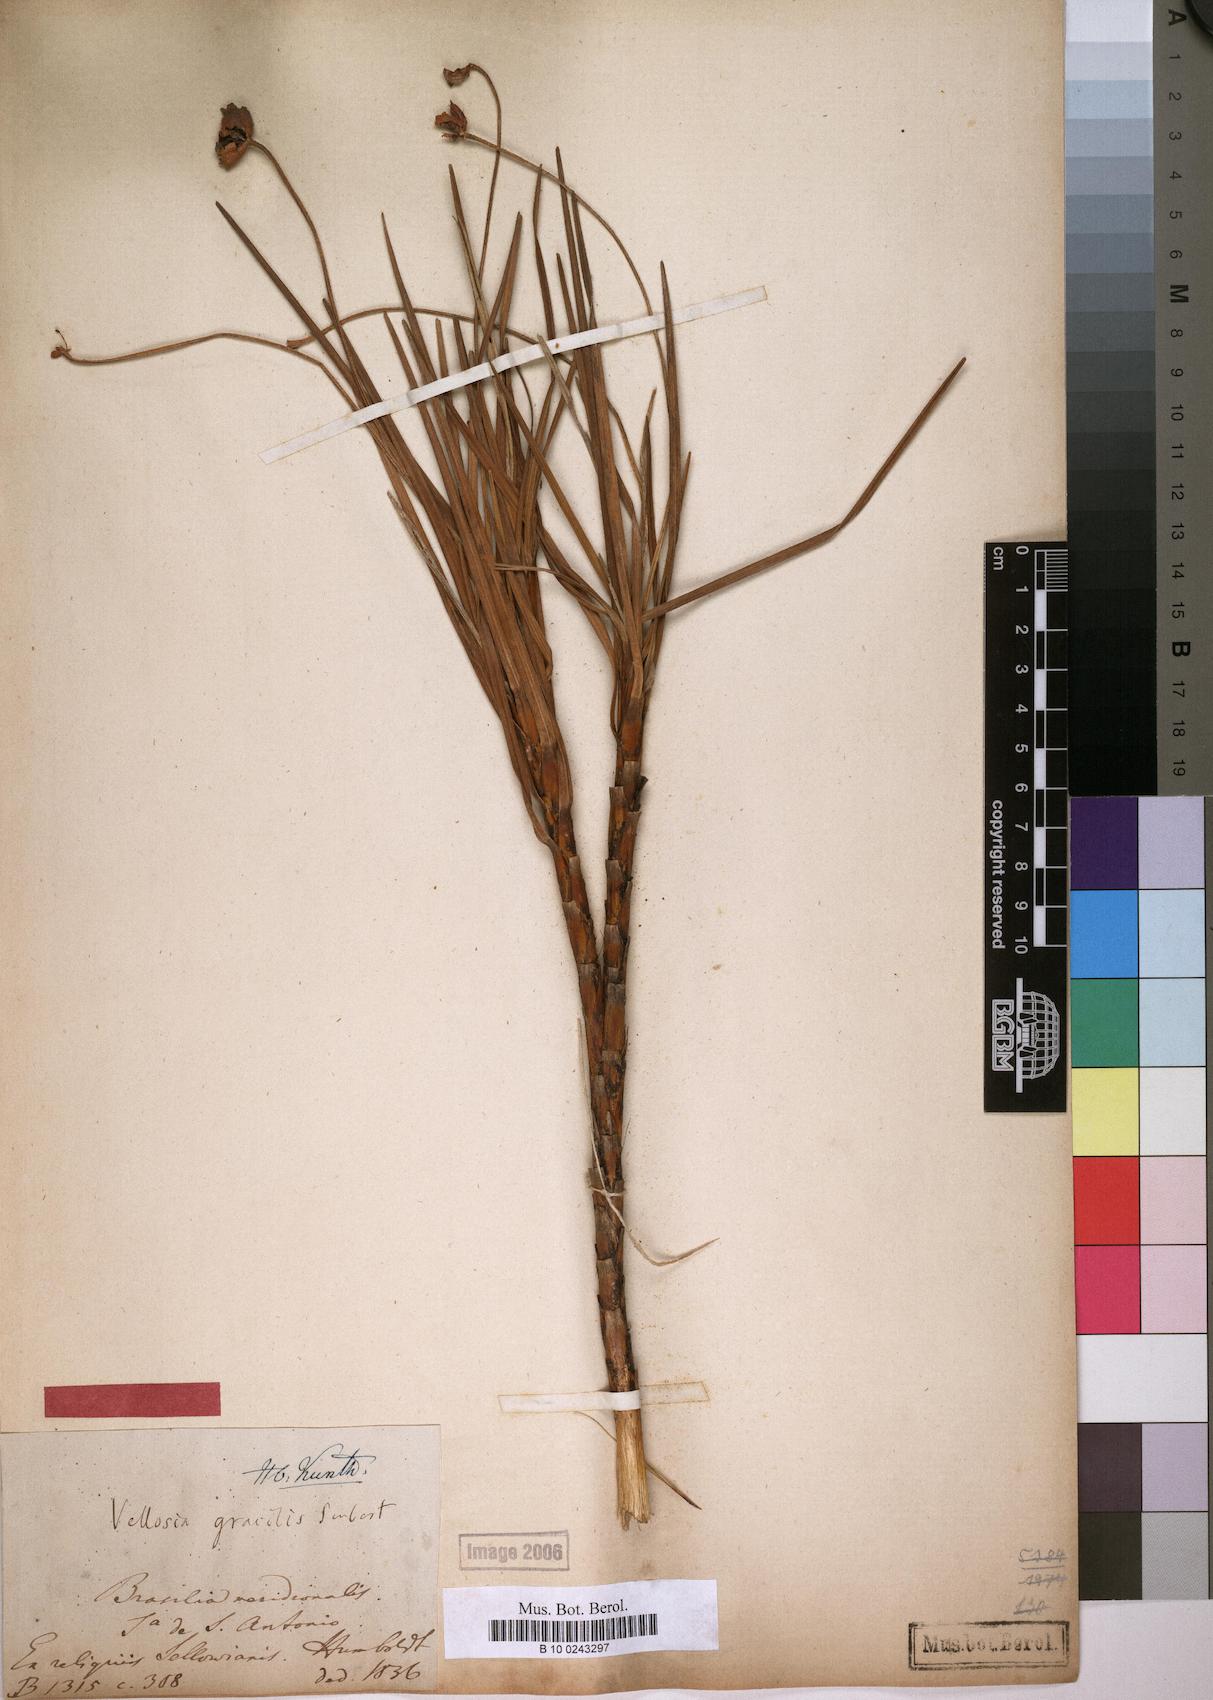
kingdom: Plantae
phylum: Tracheophyta
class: Liliopsida
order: Pandanales
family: Velloziaceae
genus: Vellozia
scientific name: Vellozia epidendroides
